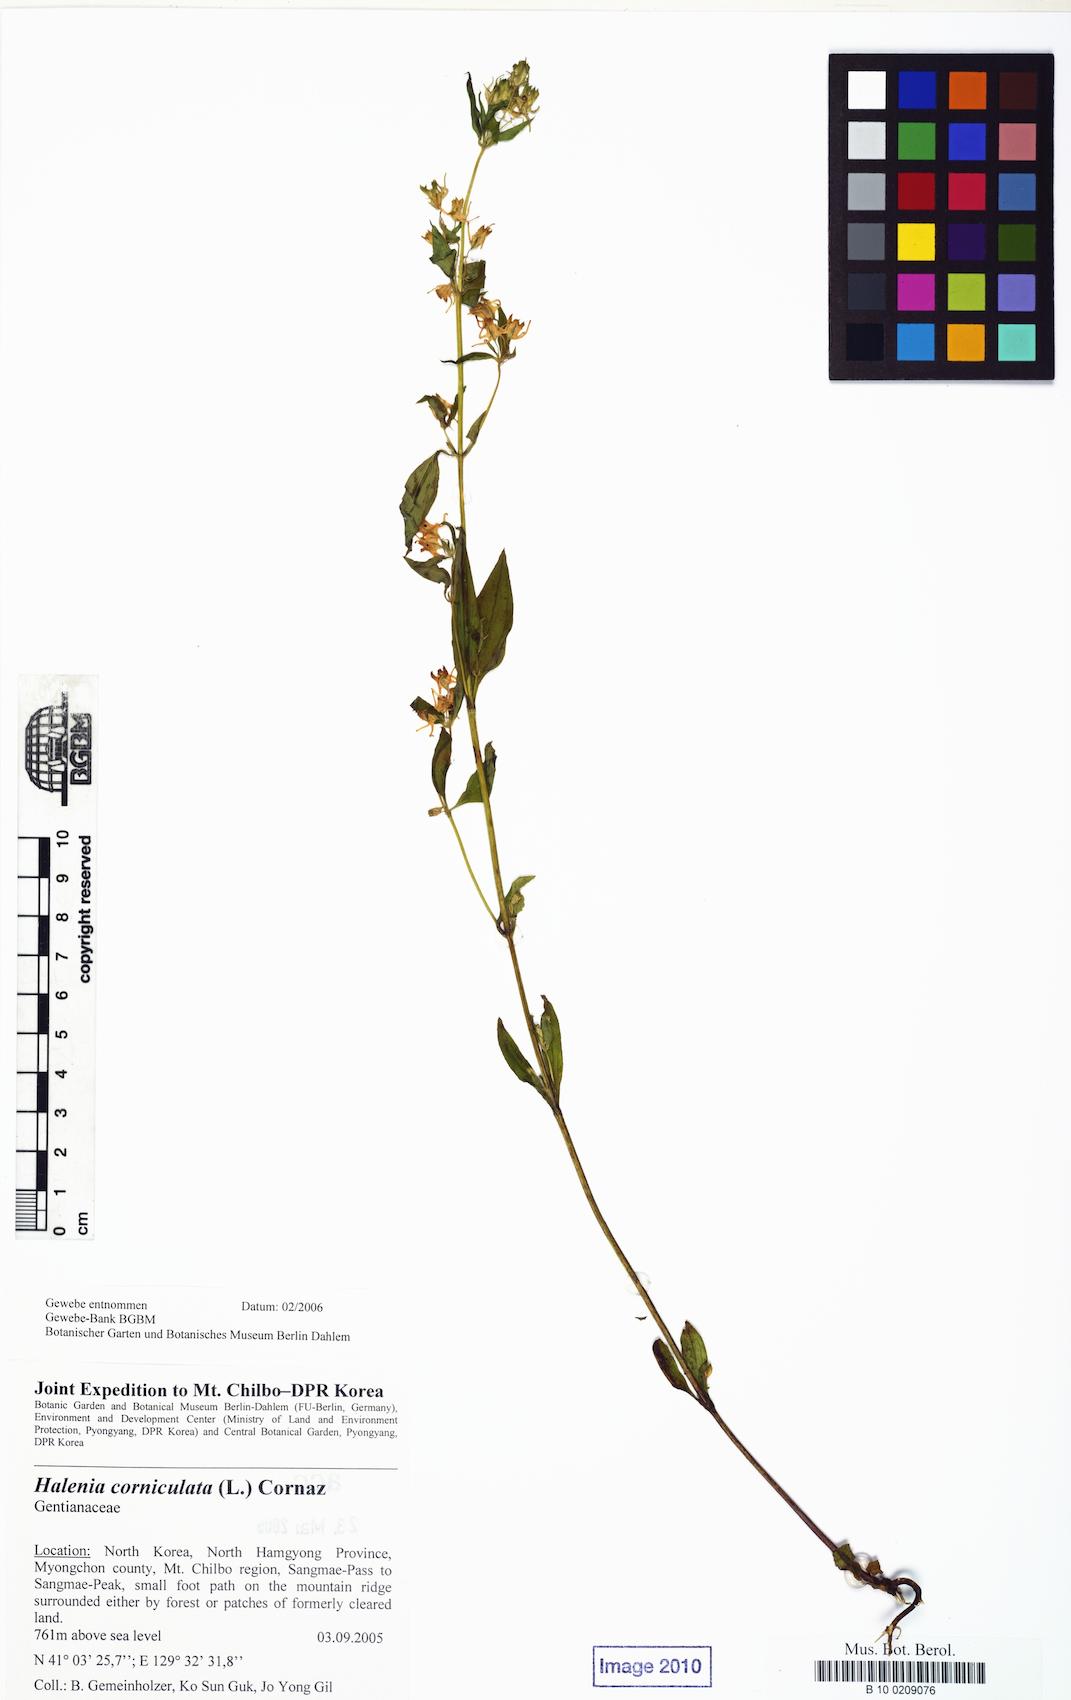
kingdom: Plantae
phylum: Tracheophyta
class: Magnoliopsida
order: Gentianales
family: Gentianaceae
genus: Halenia
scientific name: Halenia corniculata
